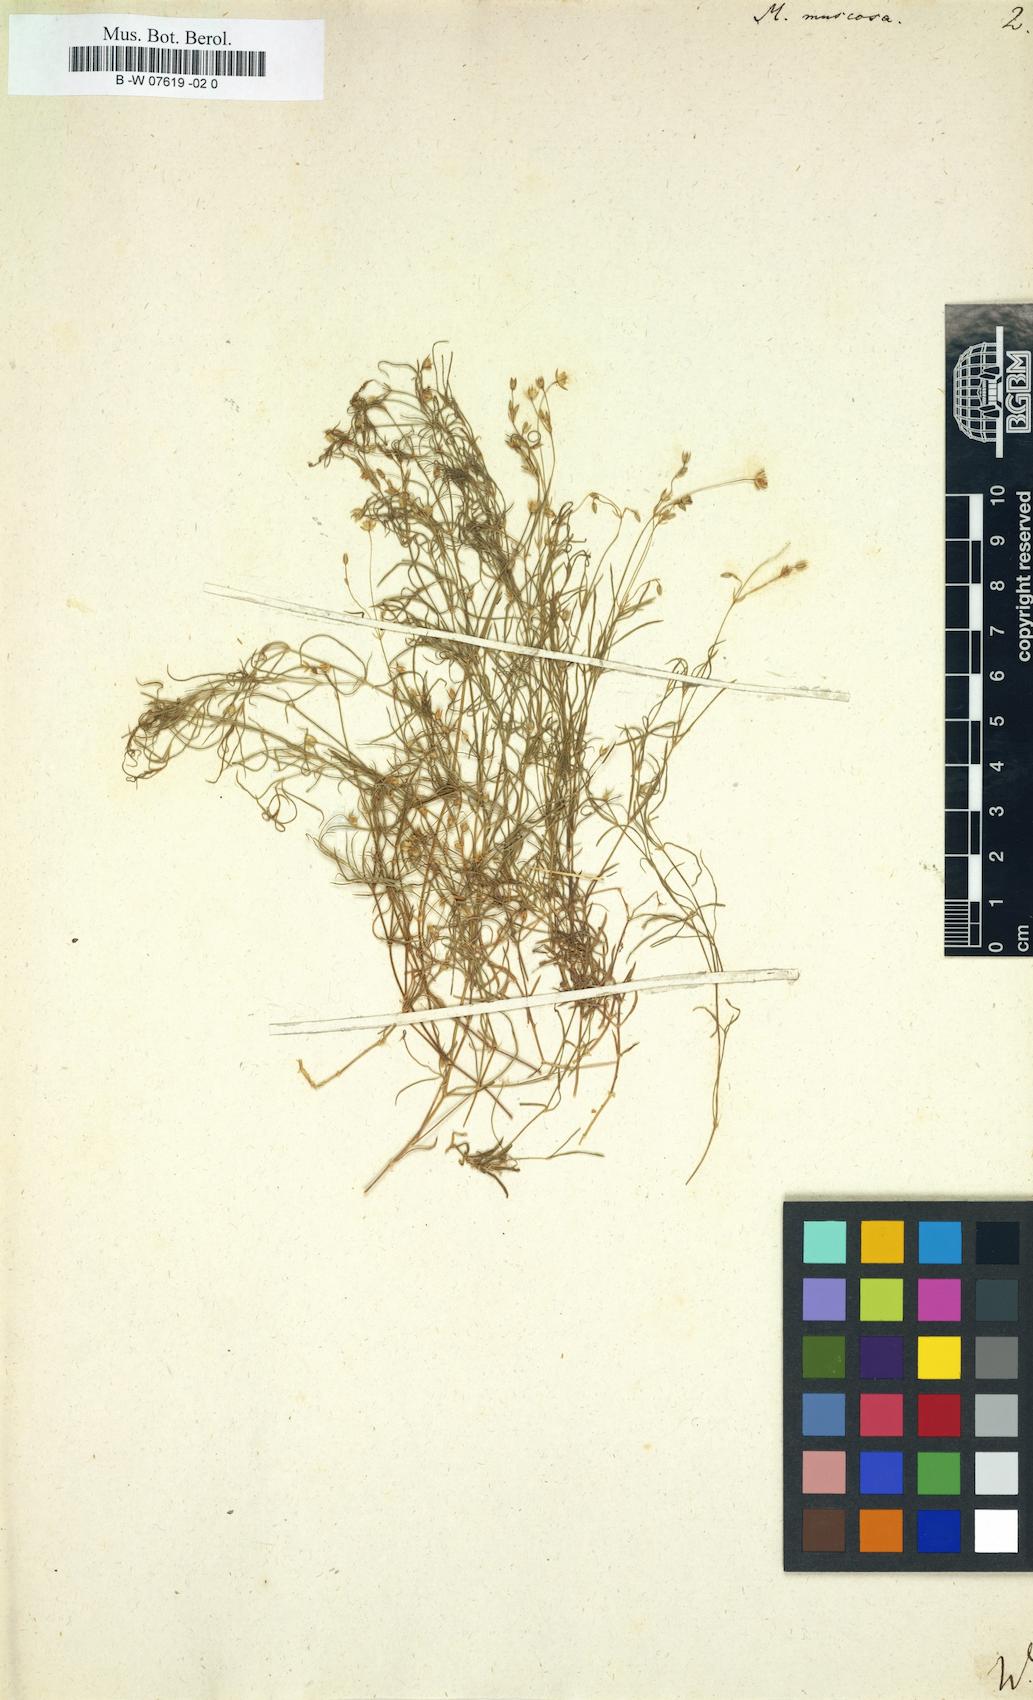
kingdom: Plantae
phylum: Tracheophyta
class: Magnoliopsida
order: Caryophyllales
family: Caryophyllaceae
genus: Moehringia
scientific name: Moehringia muscosa
